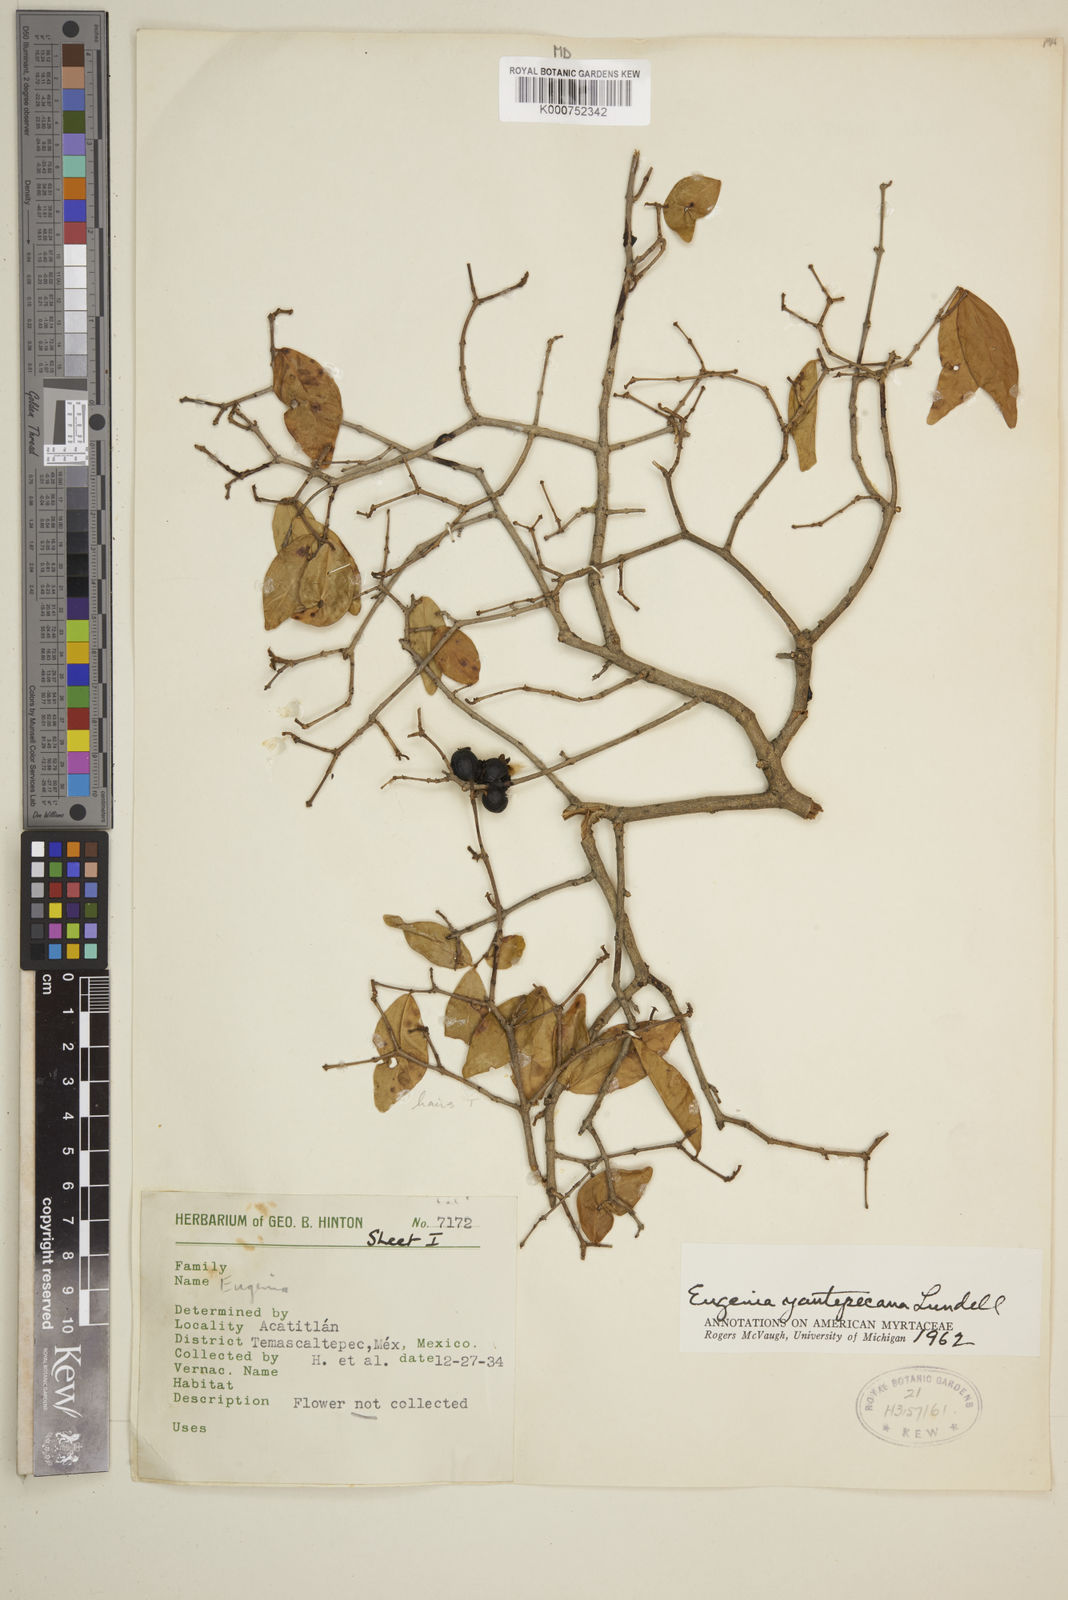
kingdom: Plantae
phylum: Tracheophyta
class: Magnoliopsida
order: Myrtales
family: Myrtaceae
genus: Eugenia
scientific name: Eugenia yautepecana
